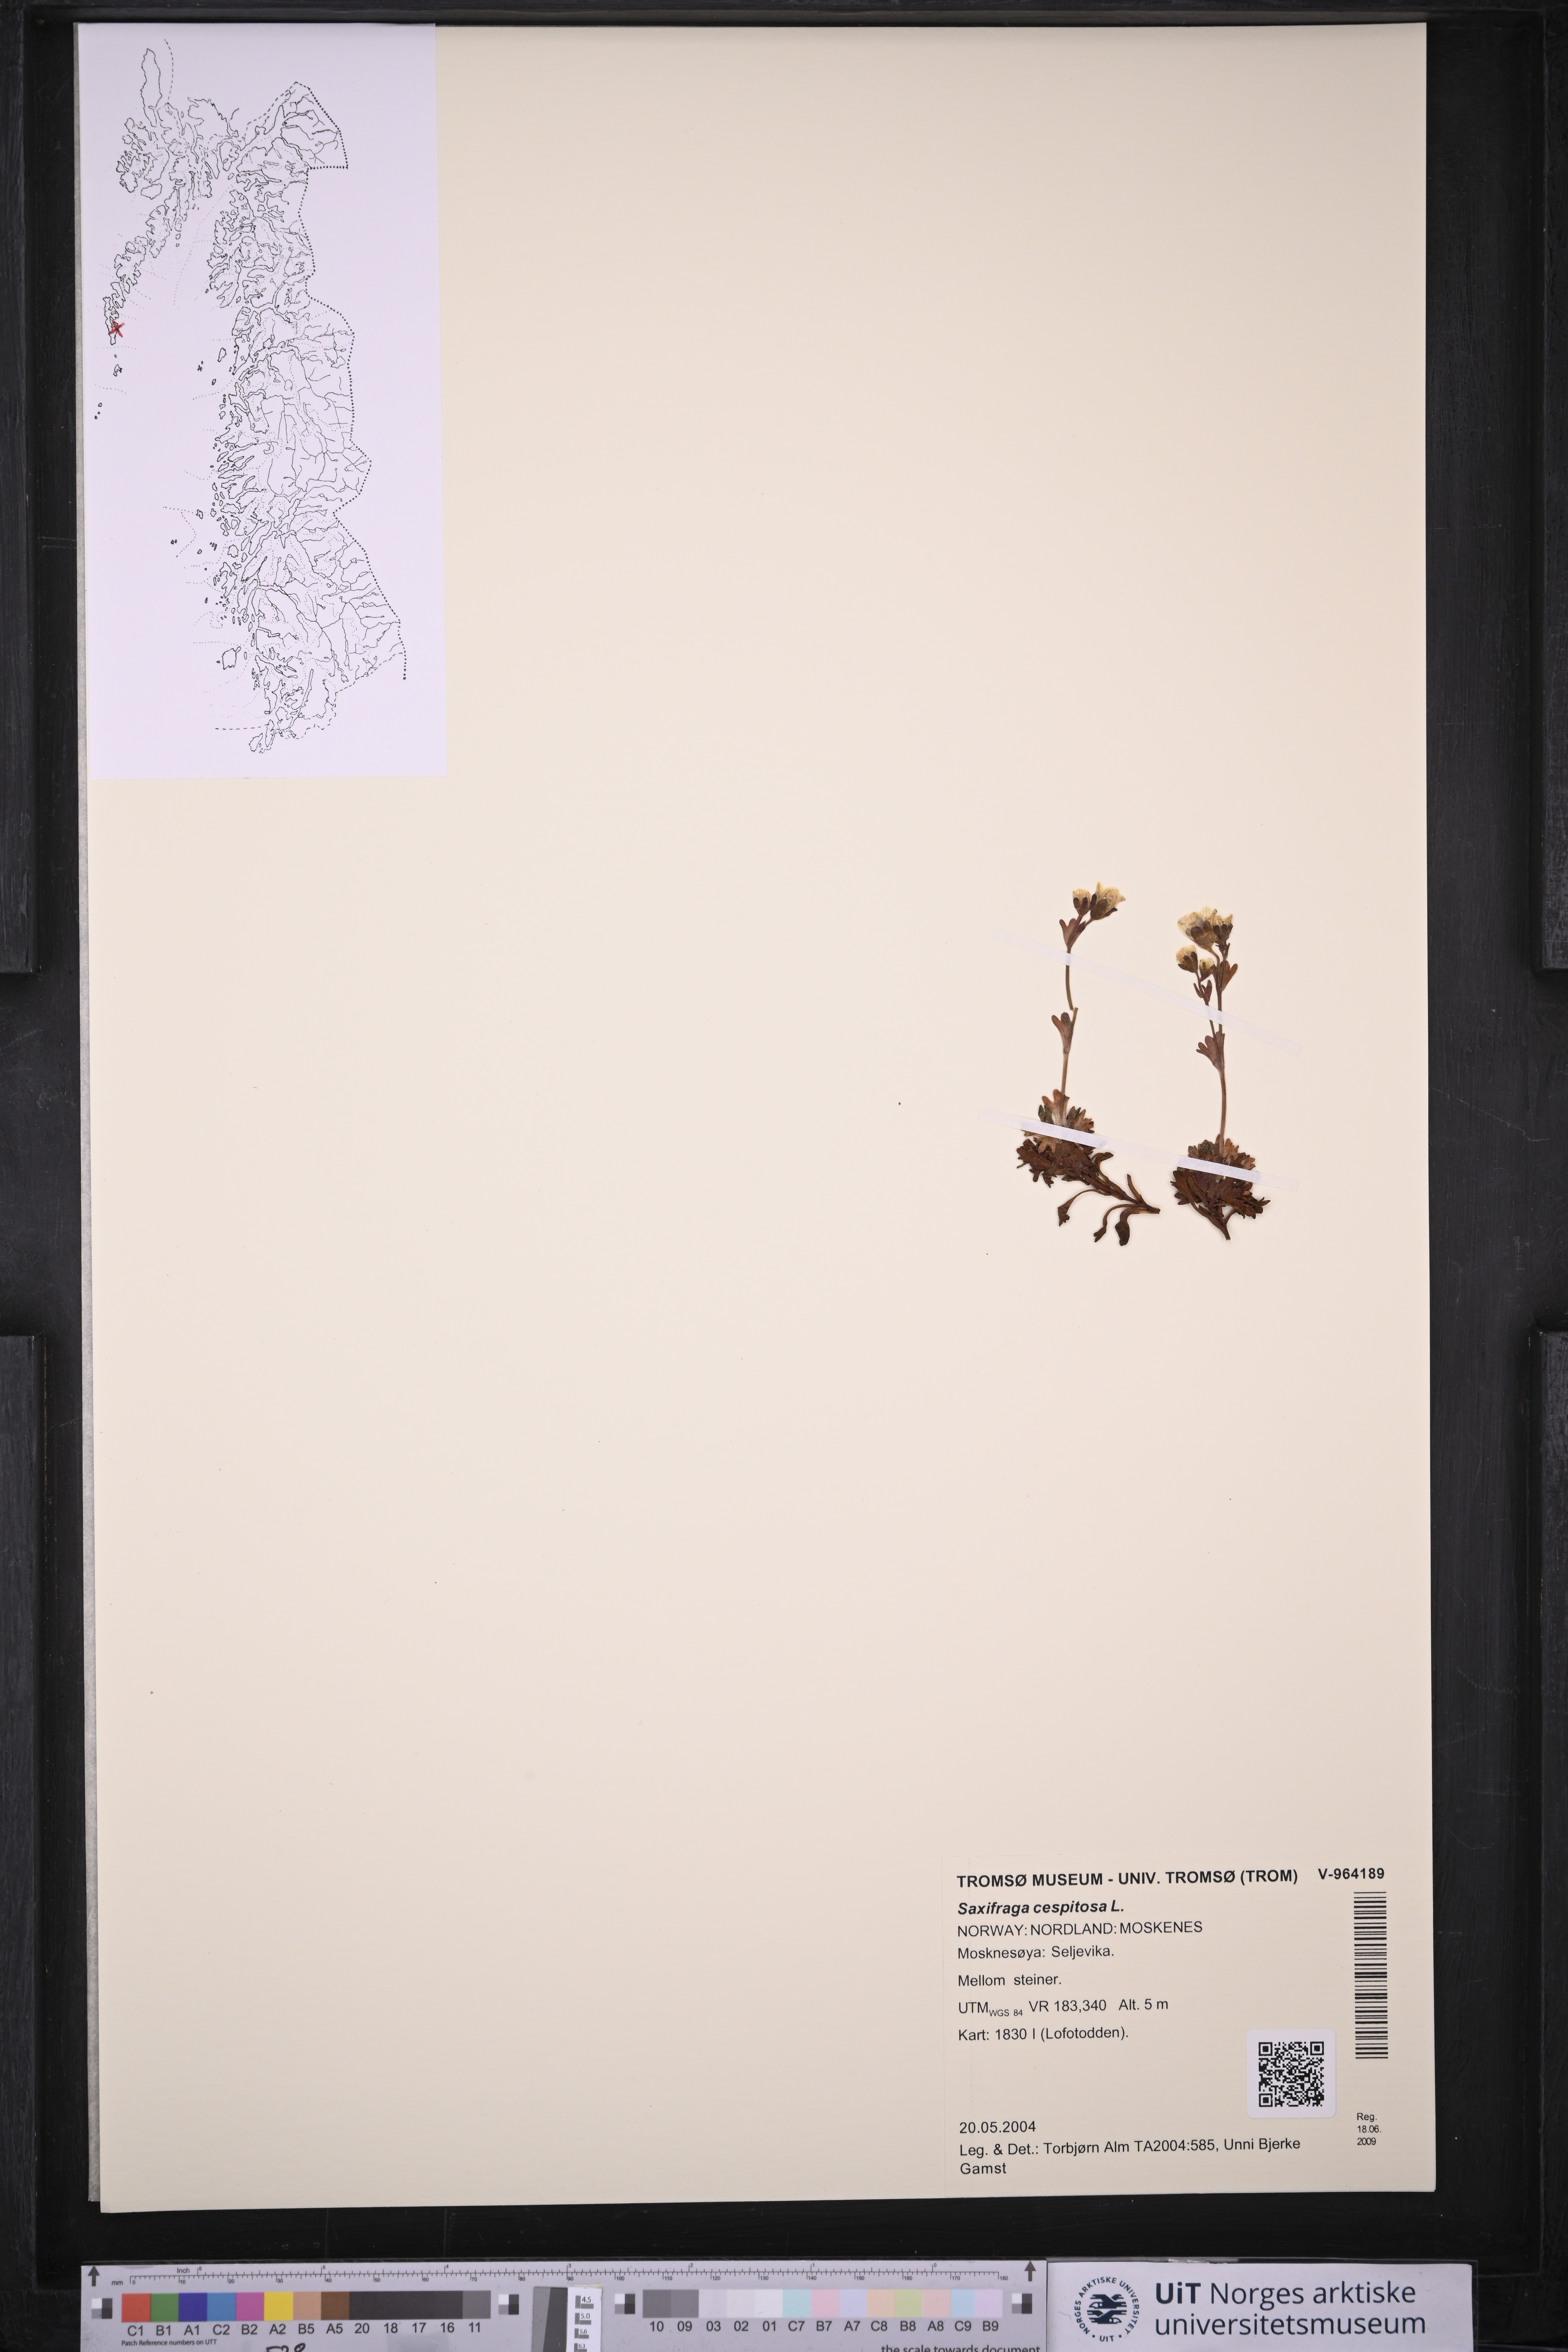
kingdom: Plantae
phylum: Tracheophyta
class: Magnoliopsida
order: Saxifragales
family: Saxifragaceae
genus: Saxifraga
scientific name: Saxifraga cespitosa
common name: Tufted saxifrage
